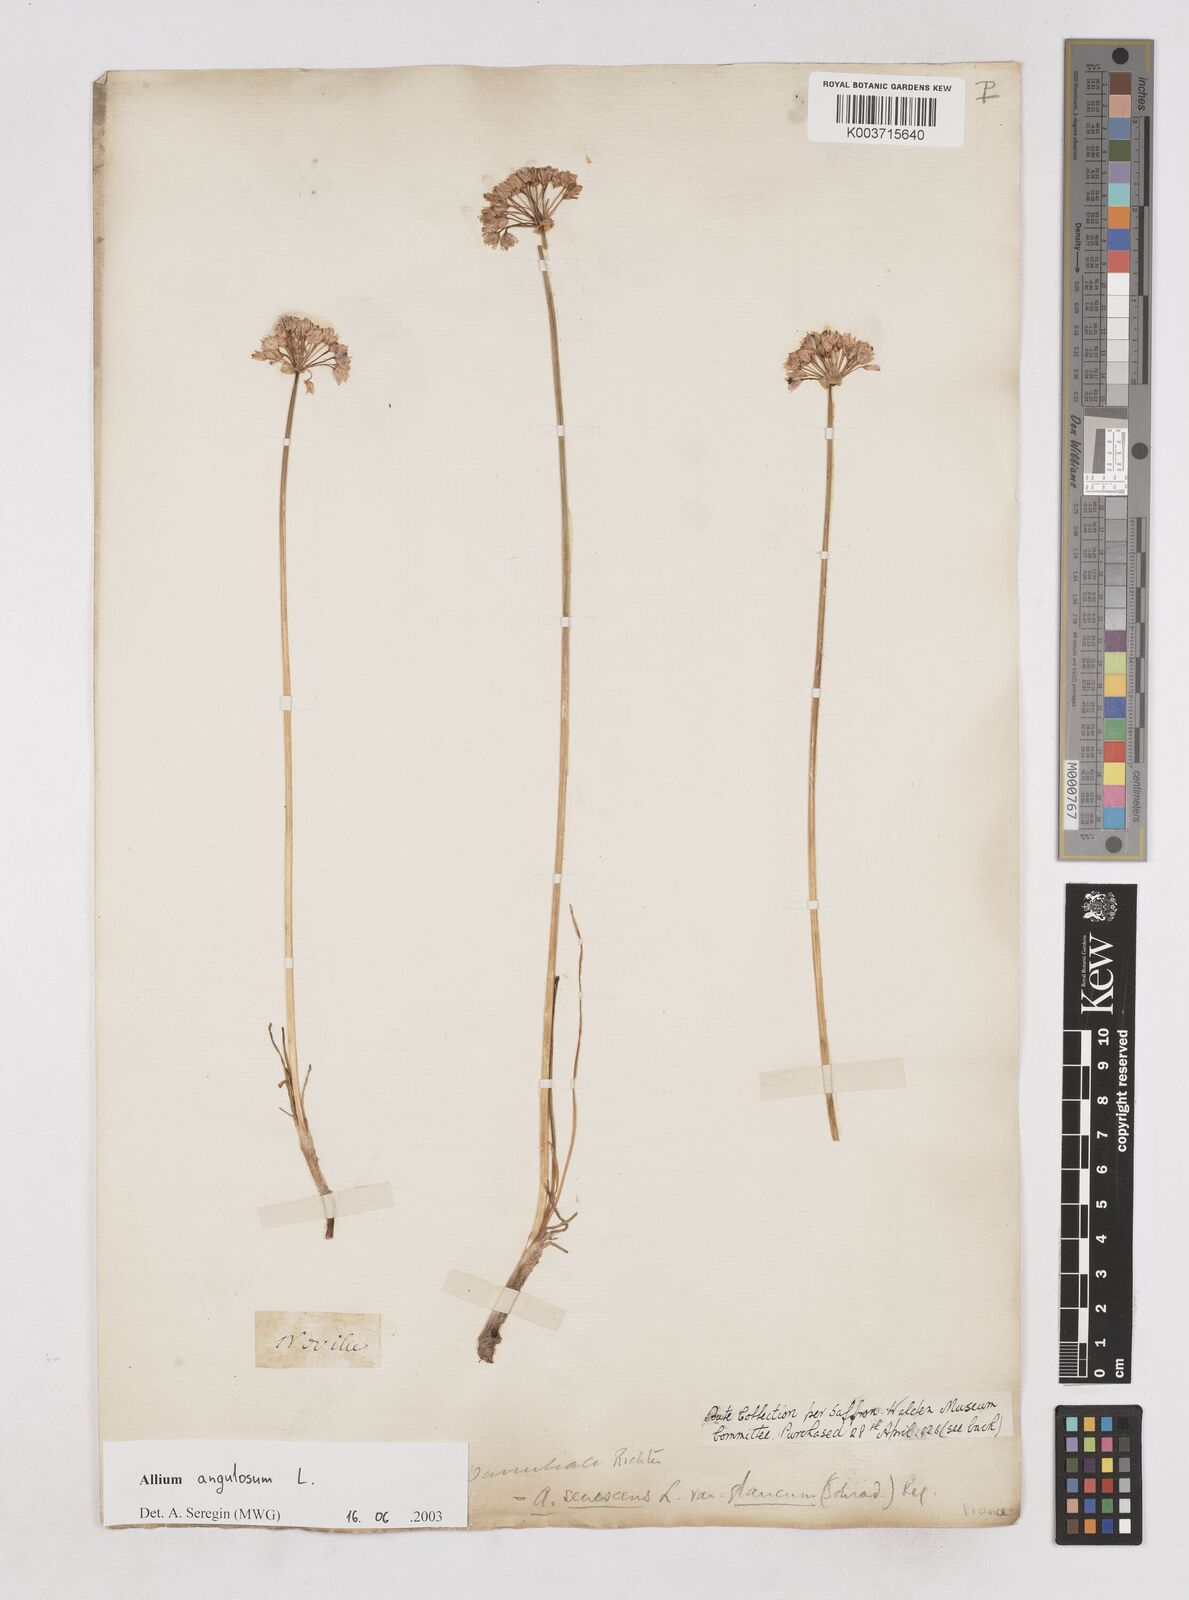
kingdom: Plantae
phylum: Tracheophyta
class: Liliopsida
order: Asparagales
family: Amaryllidaceae
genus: Allium
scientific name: Allium angulosum
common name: Mouse garlic
